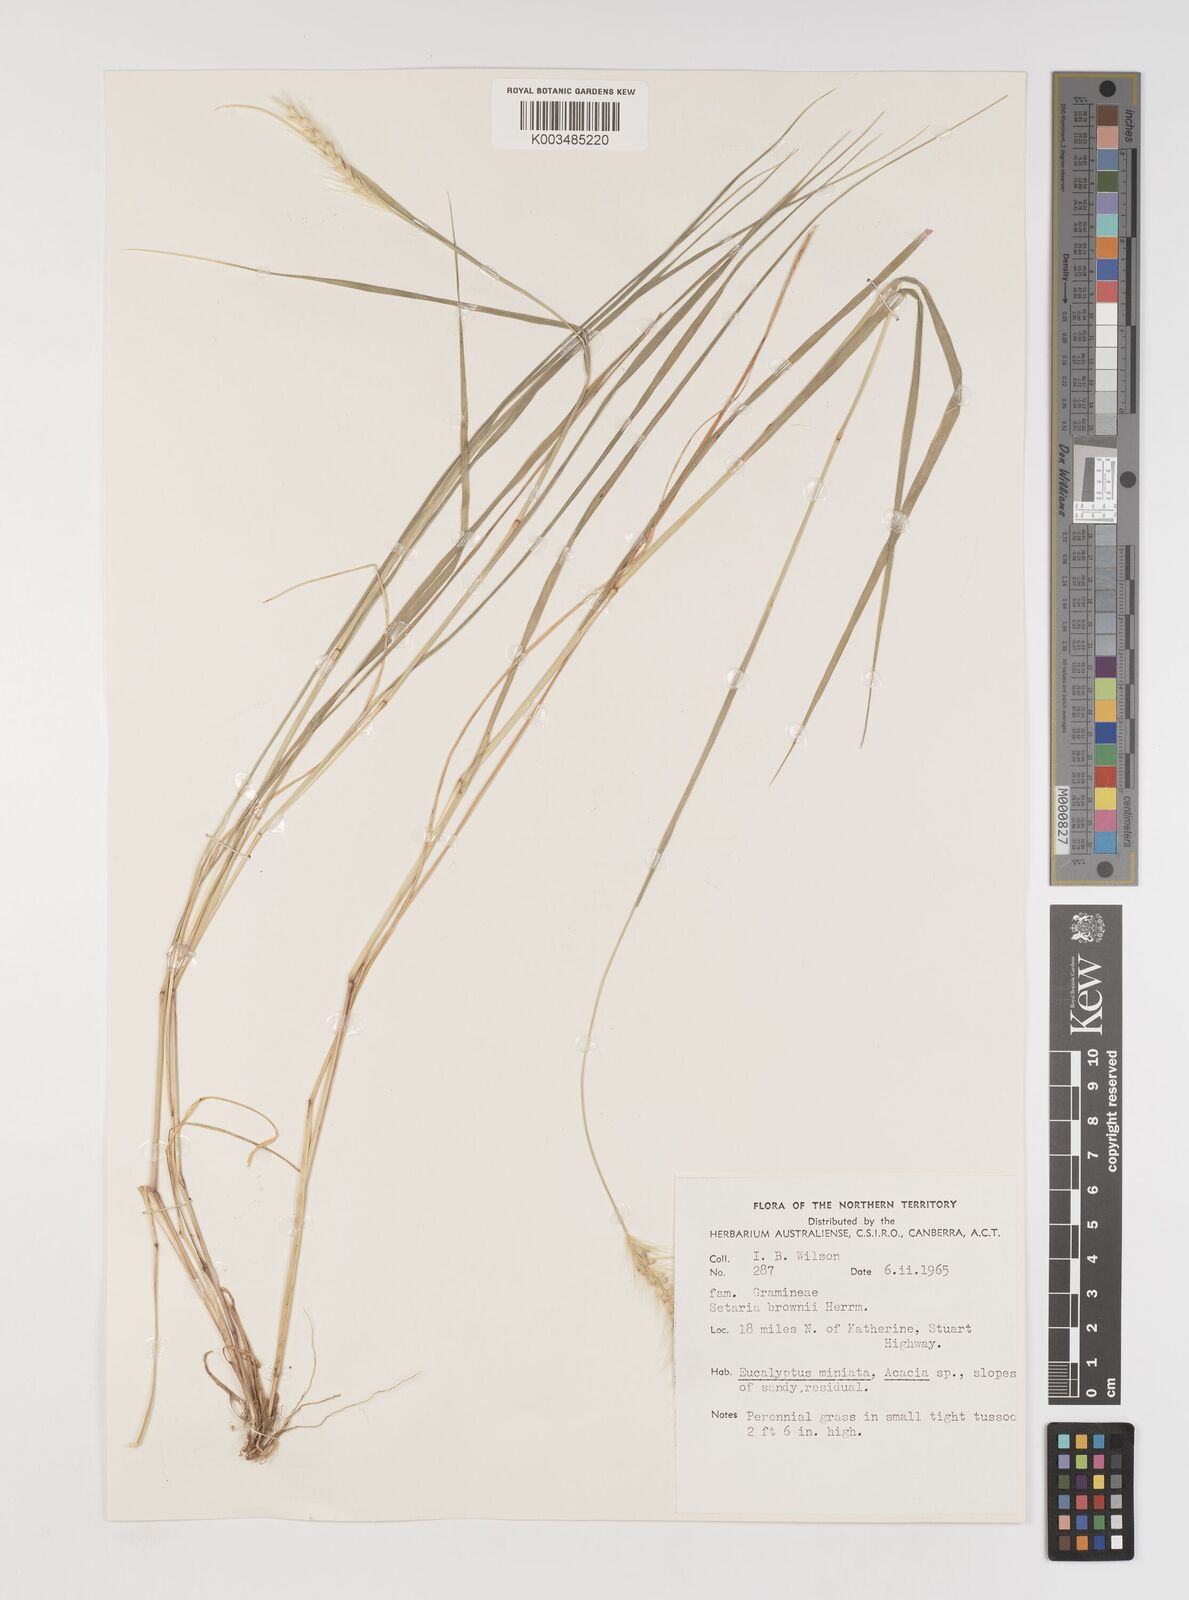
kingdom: Plantae
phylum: Tracheophyta
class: Liliopsida
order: Poales
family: Poaceae
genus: Setaria
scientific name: Setaria surgens
